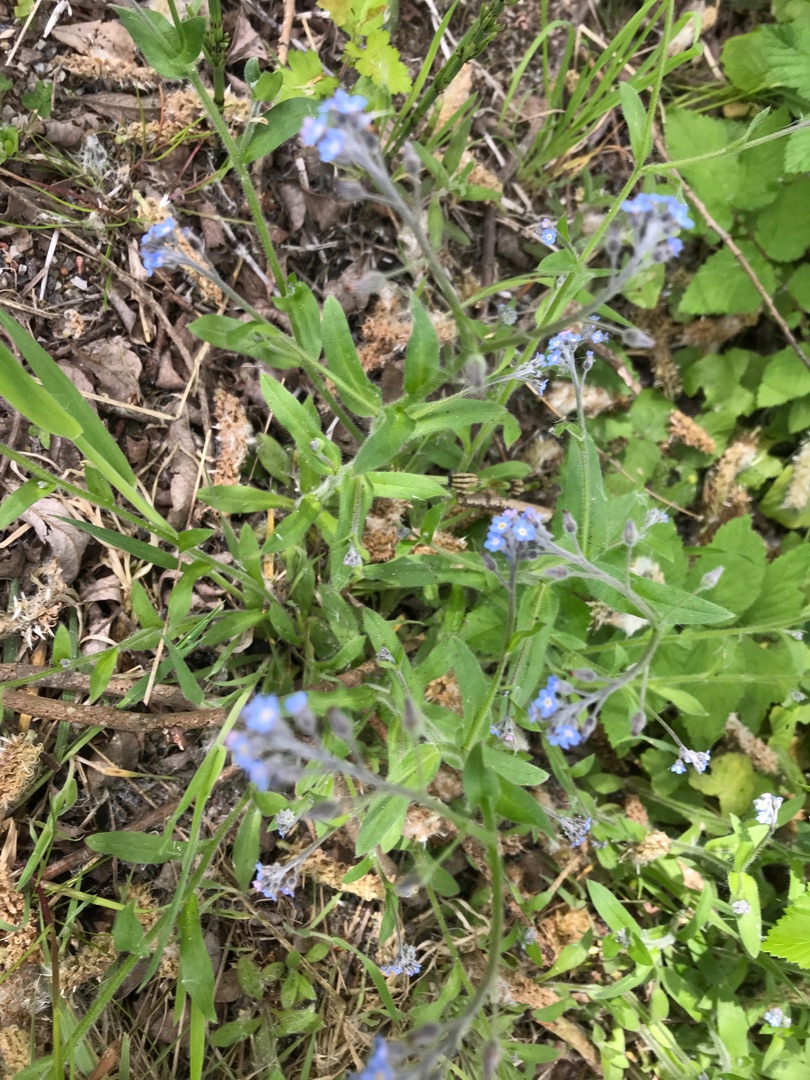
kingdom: Plantae
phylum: Tracheophyta
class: Magnoliopsida
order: Boraginales
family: Boraginaceae
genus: Myosotis
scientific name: Myosotis arvensis
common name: Mark-forglemmigej
